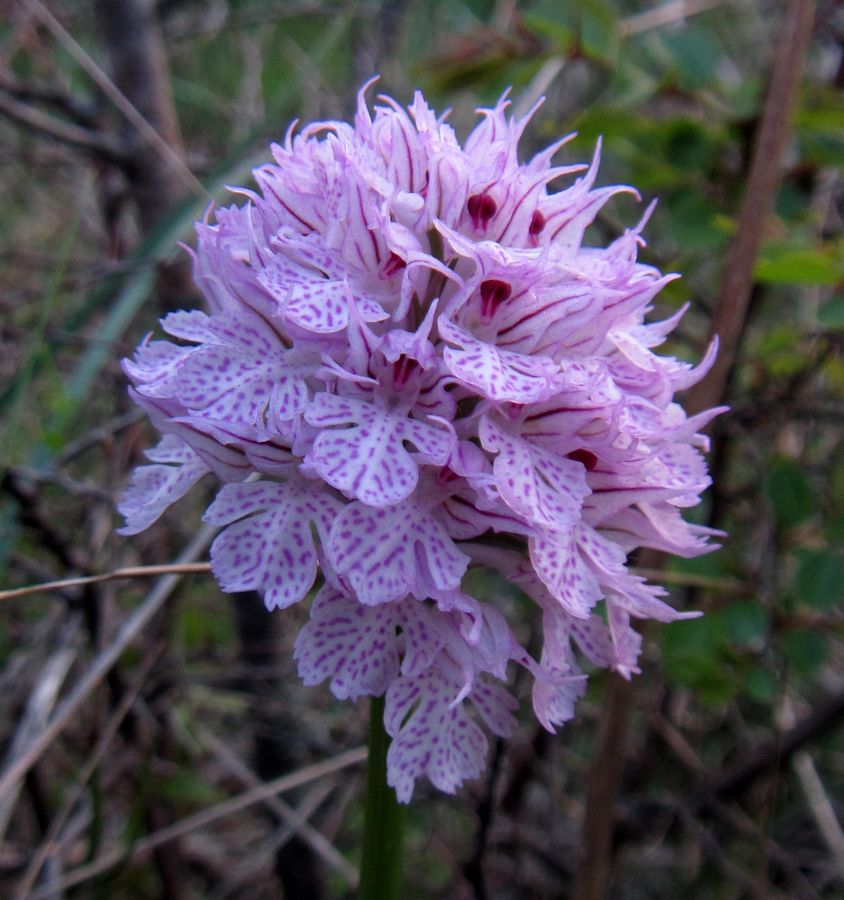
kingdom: Plantae
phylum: Tracheophyta
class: Liliopsida
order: Asparagales
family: Orchidaceae
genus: Neotinea
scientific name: Neotinea tridentata
